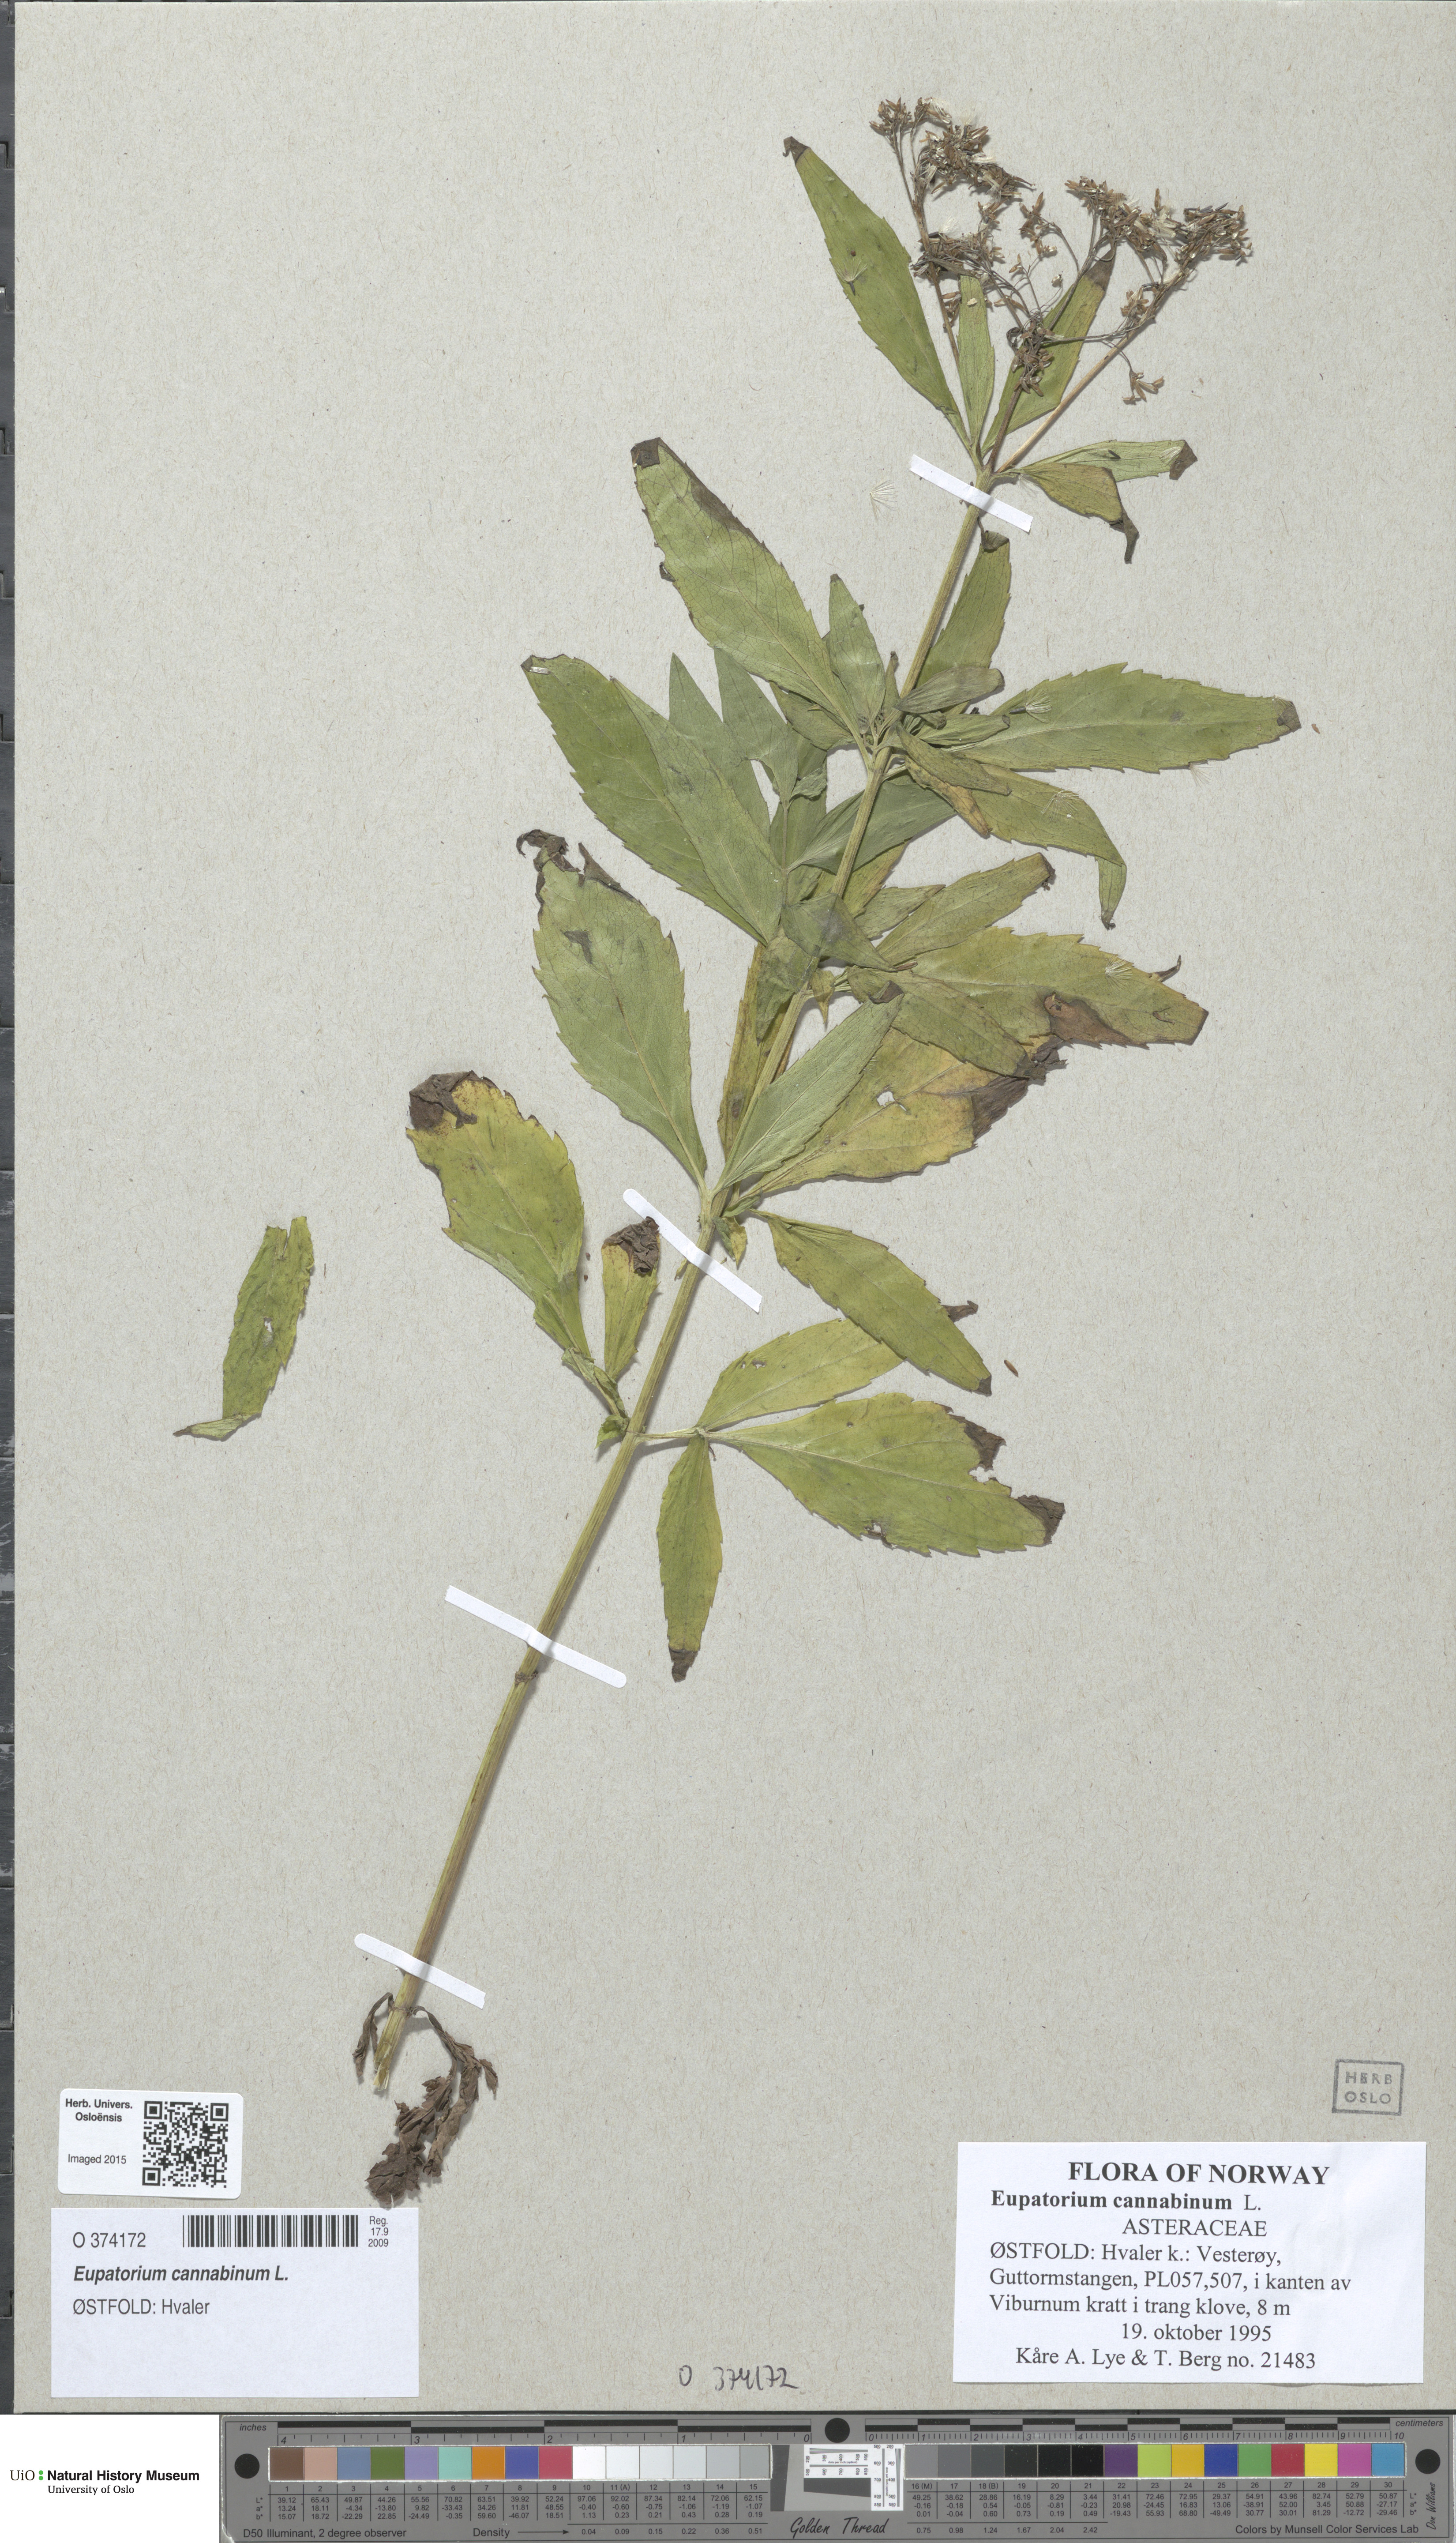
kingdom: Plantae
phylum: Tracheophyta
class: Magnoliopsida
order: Asterales
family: Asteraceae
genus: Eupatorium
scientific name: Eupatorium cannabinum
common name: Hemp-agrimony
